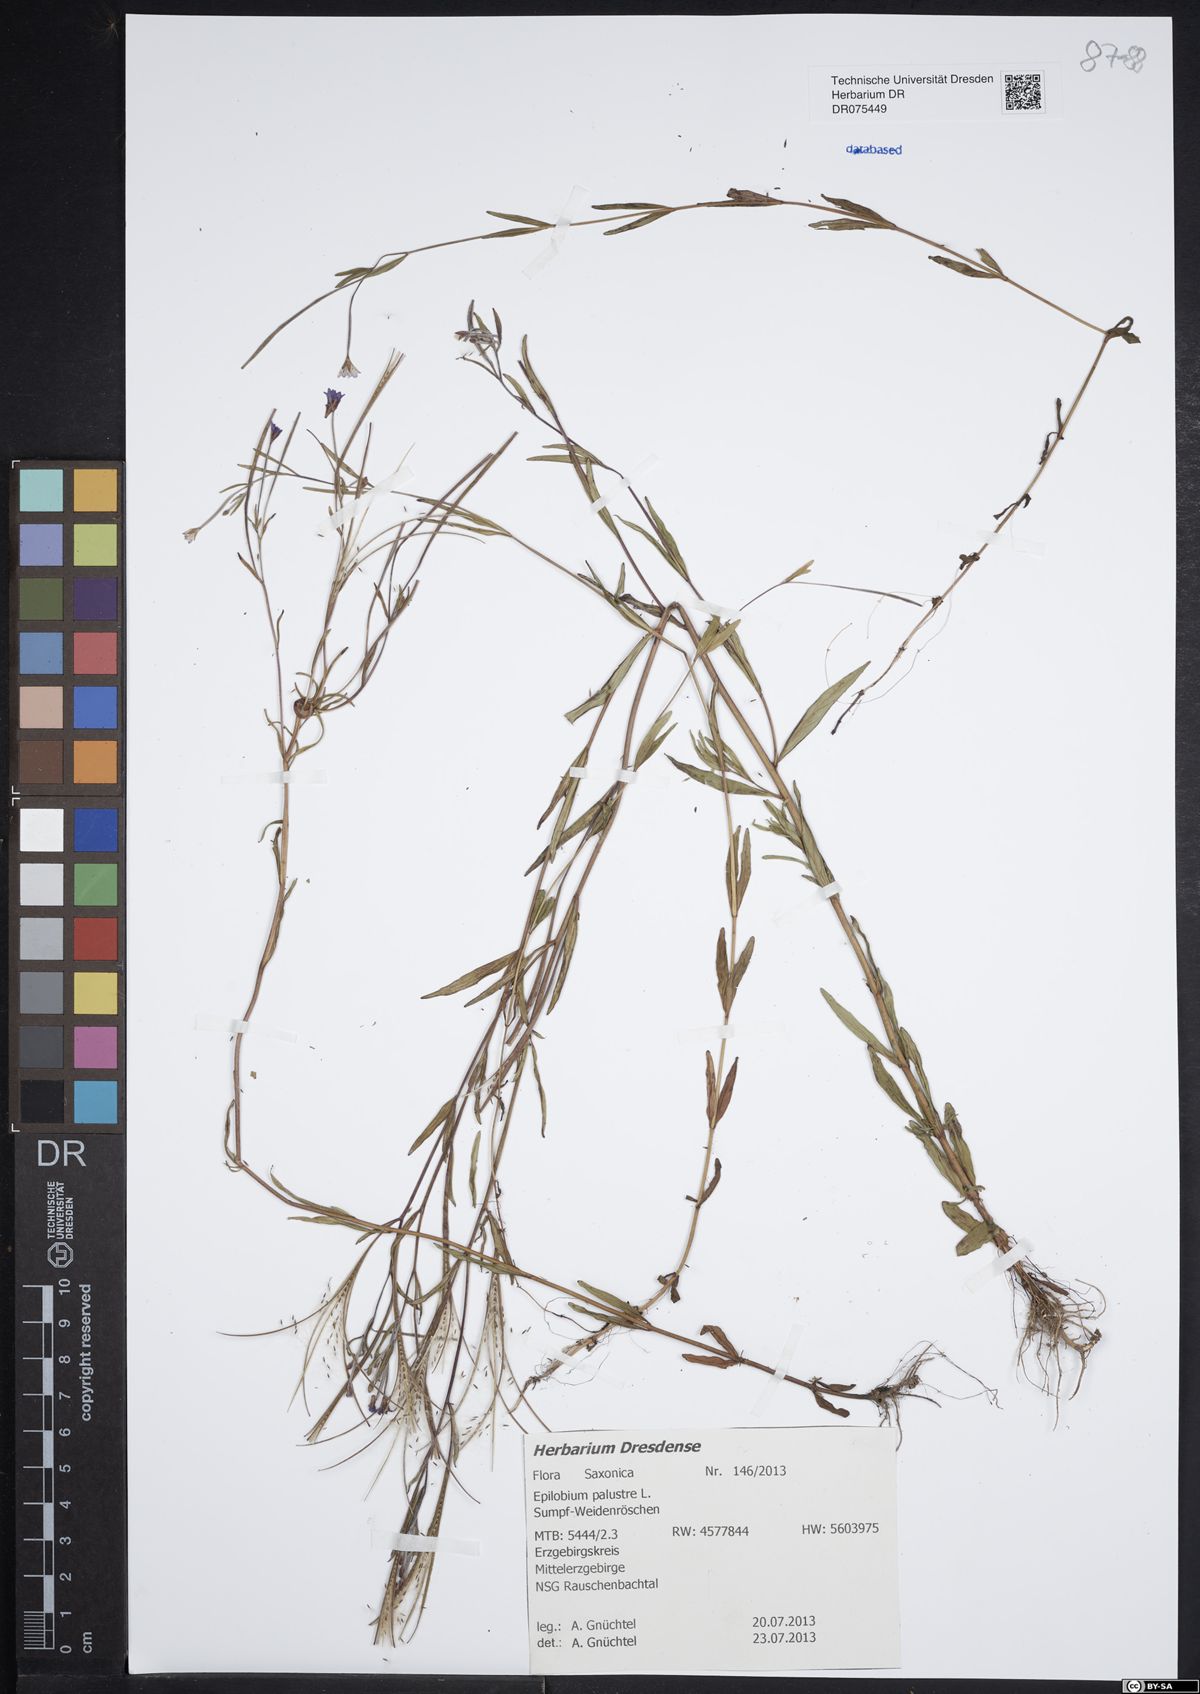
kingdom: Plantae
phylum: Tracheophyta
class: Magnoliopsida
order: Myrtales
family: Onagraceae
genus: Epilobium
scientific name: Epilobium palustre
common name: Marsh willowherb
